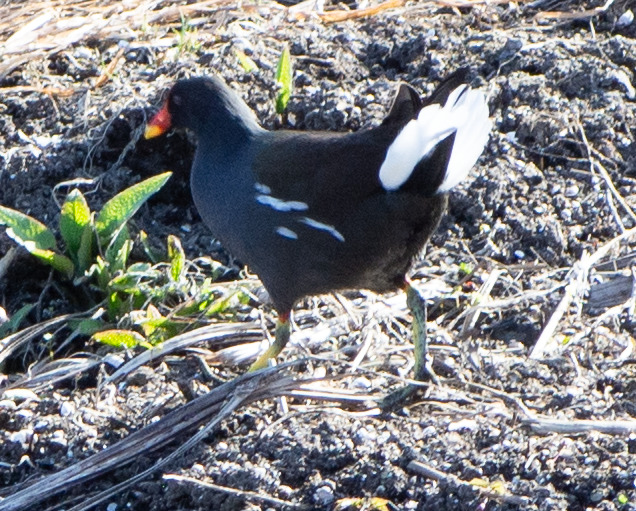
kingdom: Animalia
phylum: Chordata
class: Aves
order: Gruiformes
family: Rallidae
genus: Gallinula
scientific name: Gallinula chloropus
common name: Grønbenet rørhøne
